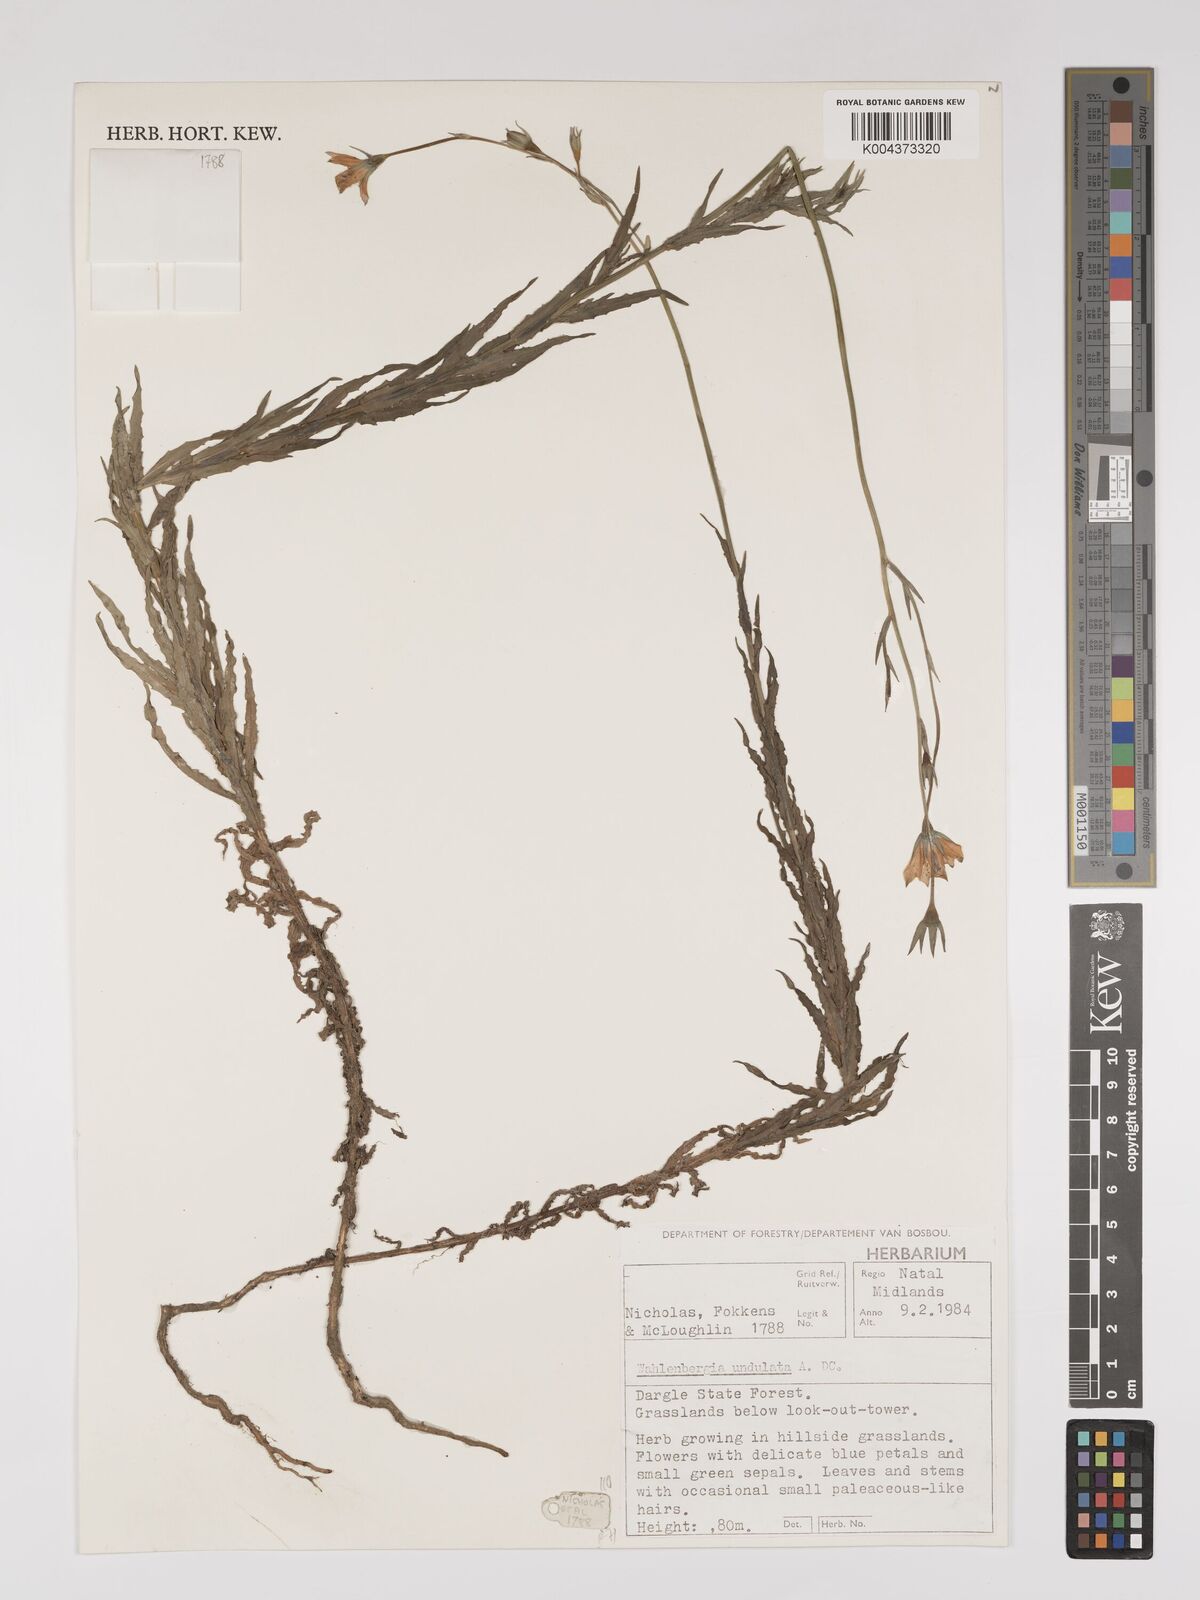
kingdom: Plantae
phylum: Tracheophyta
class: Magnoliopsida
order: Asterales
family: Campanulaceae
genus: Wahlenbergia
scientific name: Wahlenbergia undulata
